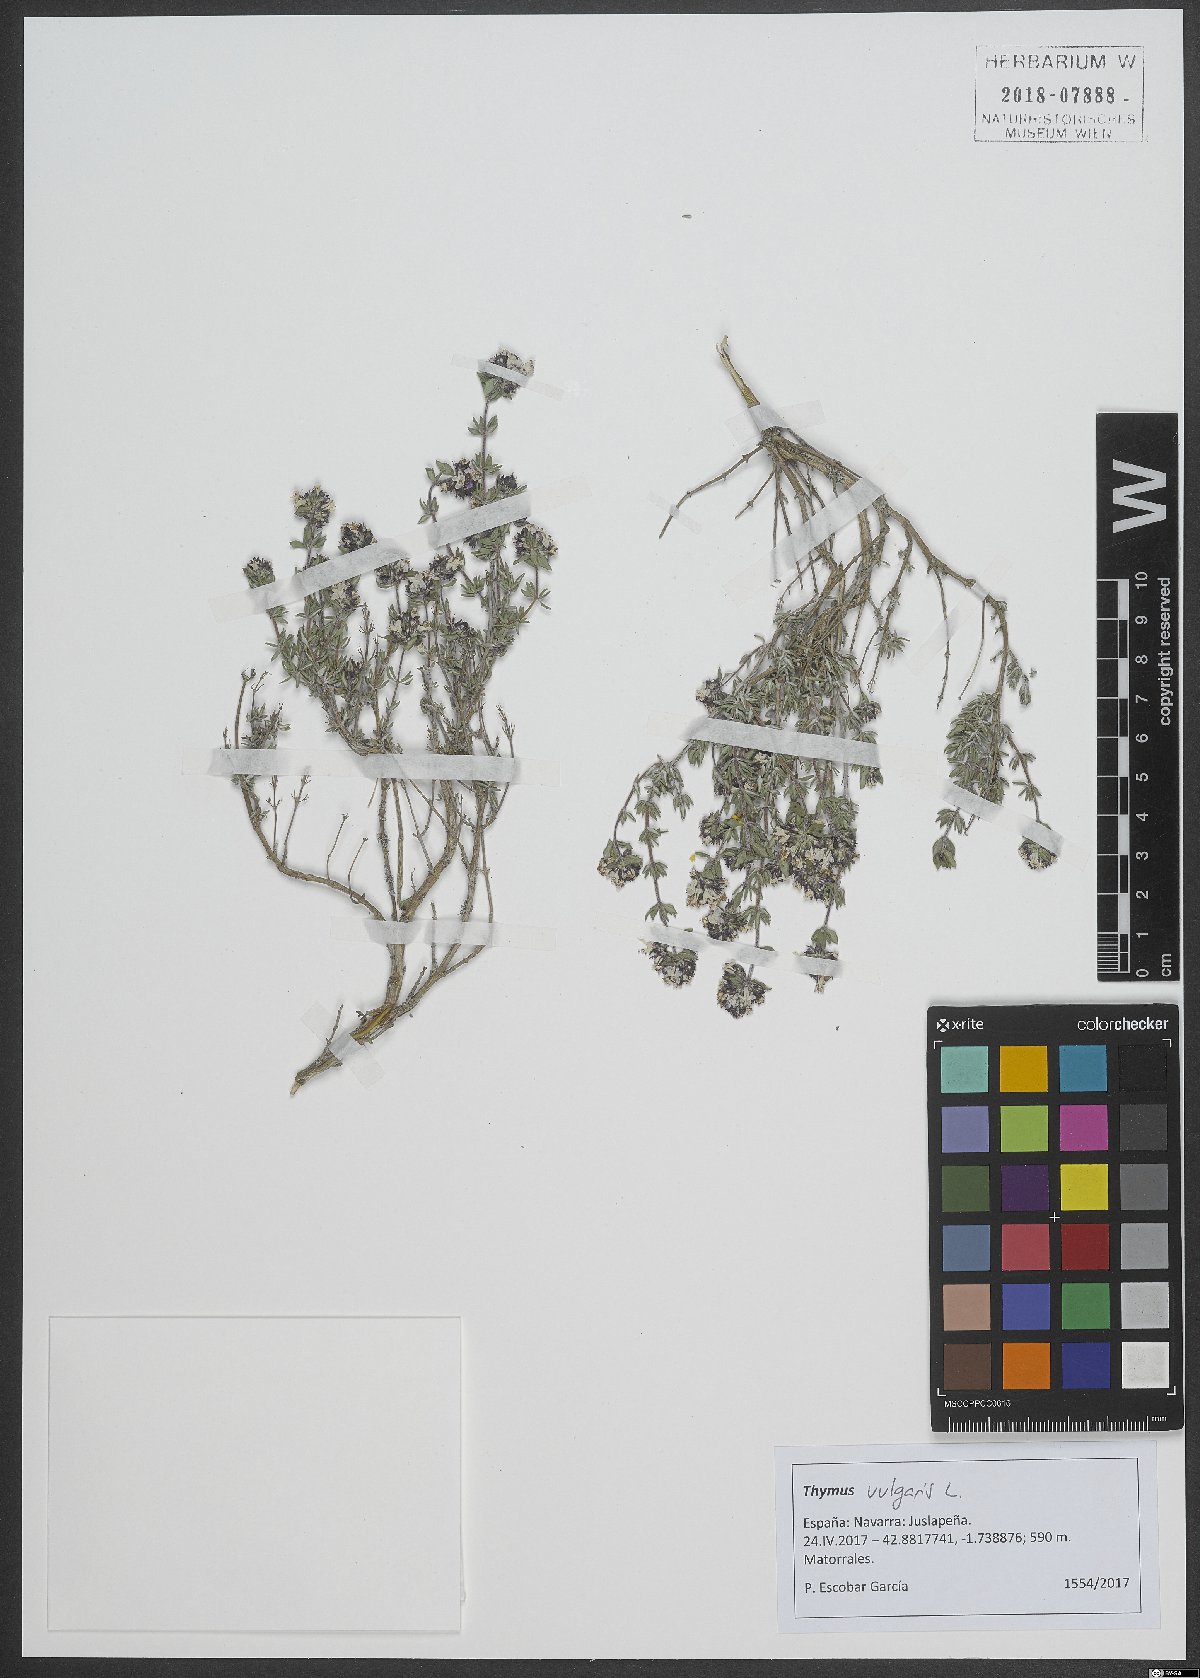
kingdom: Plantae
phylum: Tracheophyta
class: Magnoliopsida
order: Lamiales
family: Lamiaceae
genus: Thymus
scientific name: Thymus vulgaris
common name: Garden thyme
